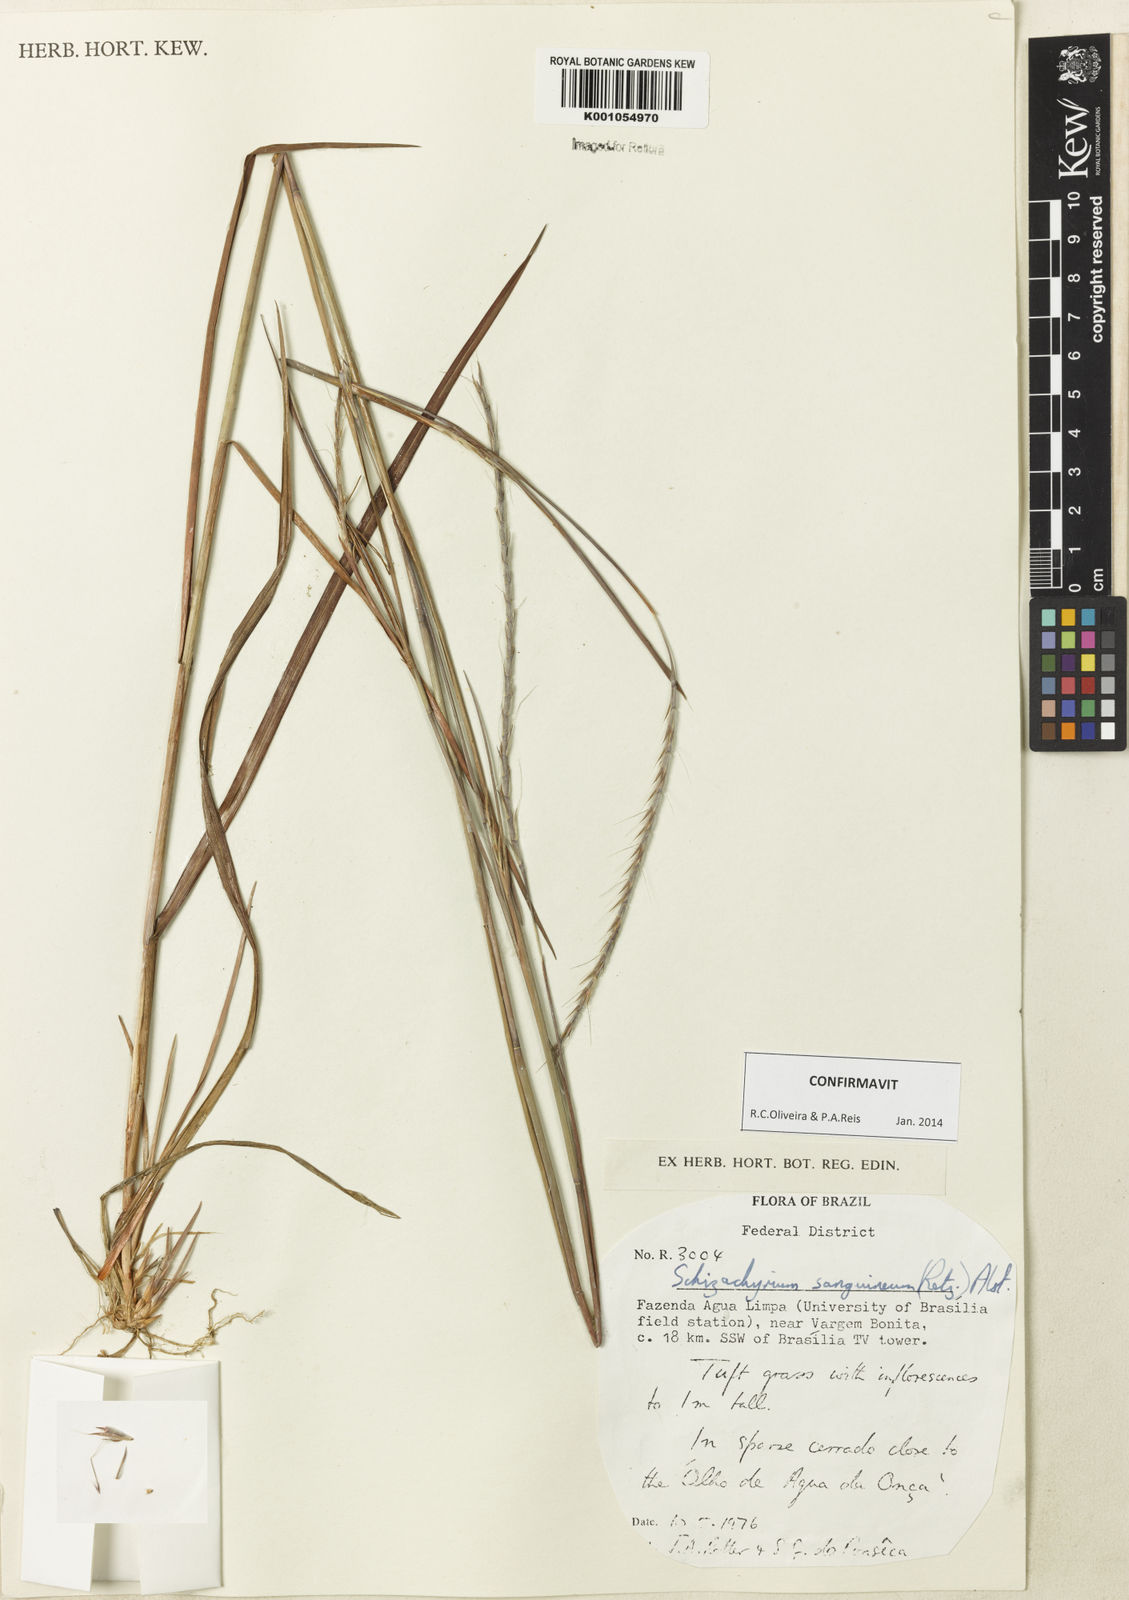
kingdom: Plantae
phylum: Tracheophyta
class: Liliopsida
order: Poales
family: Poaceae
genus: Schizachyrium
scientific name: Schizachyrium sanguineum
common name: Crimson bluestem
